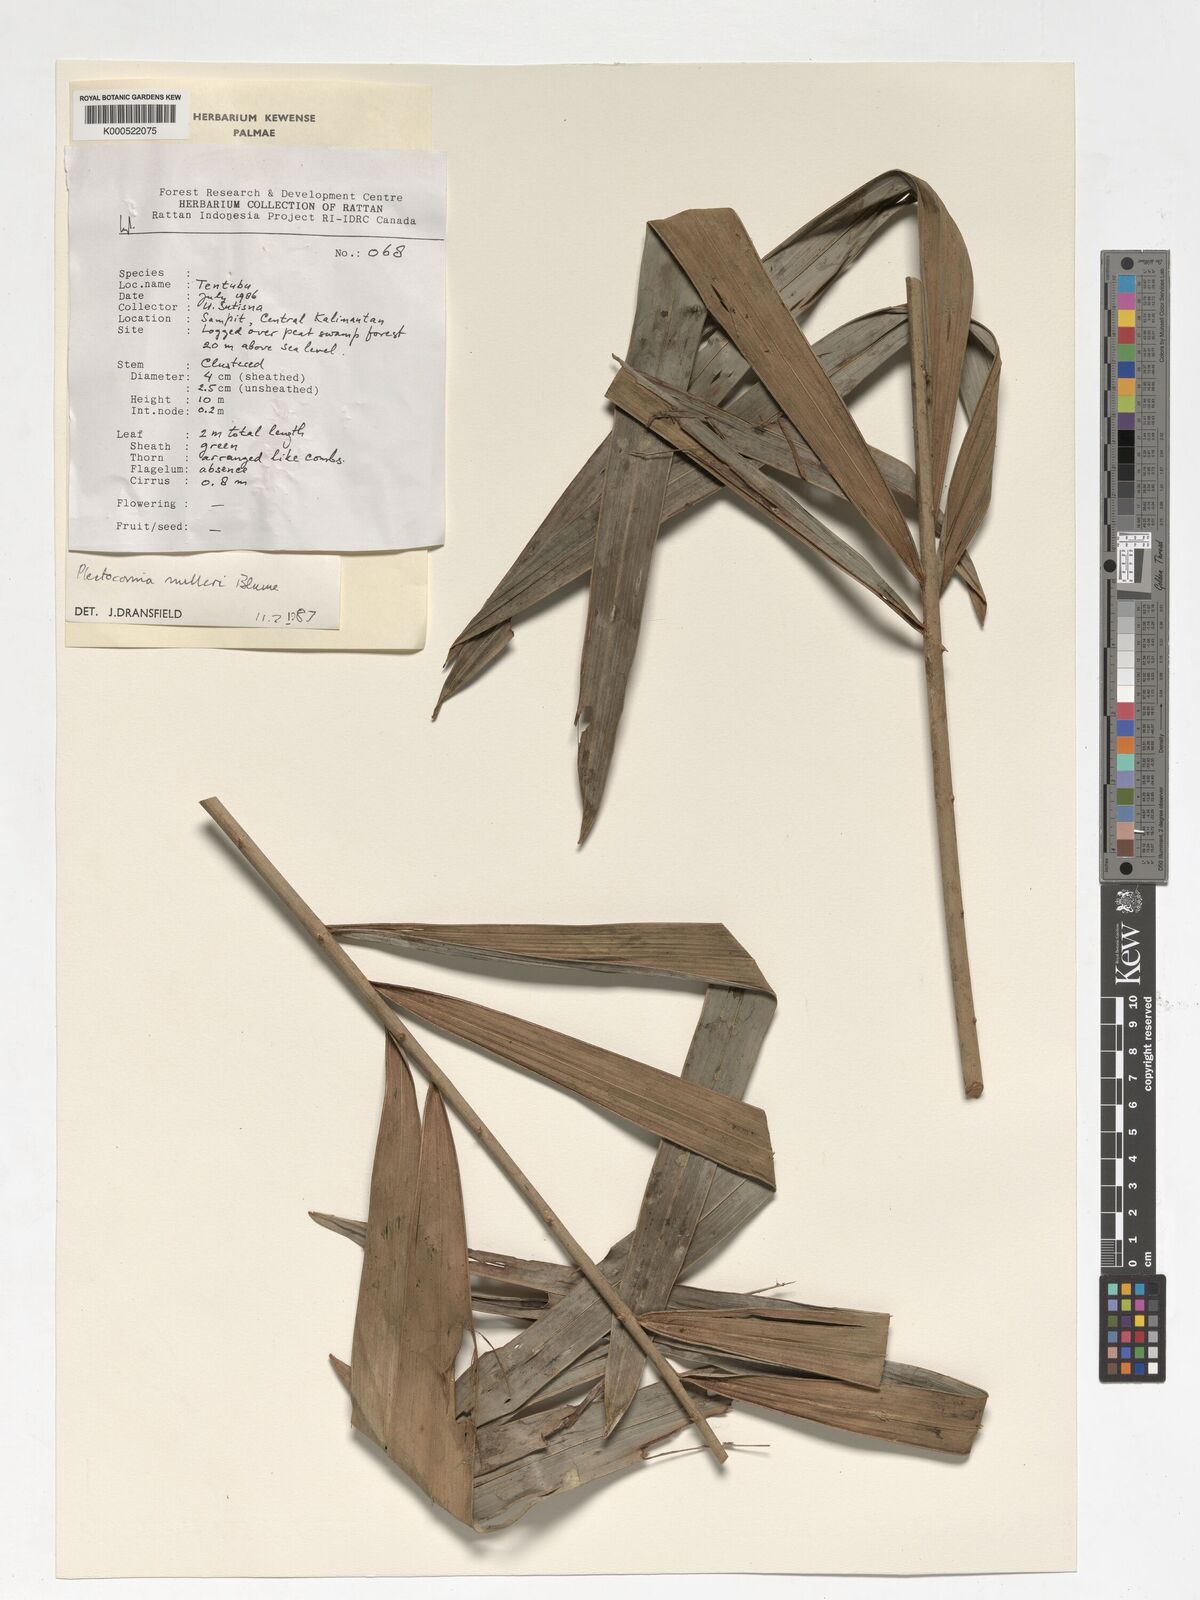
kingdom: Plantae
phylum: Tracheophyta
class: Liliopsida
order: Arecales
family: Arecaceae
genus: Plectocomia
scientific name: Plectocomia mulleri
